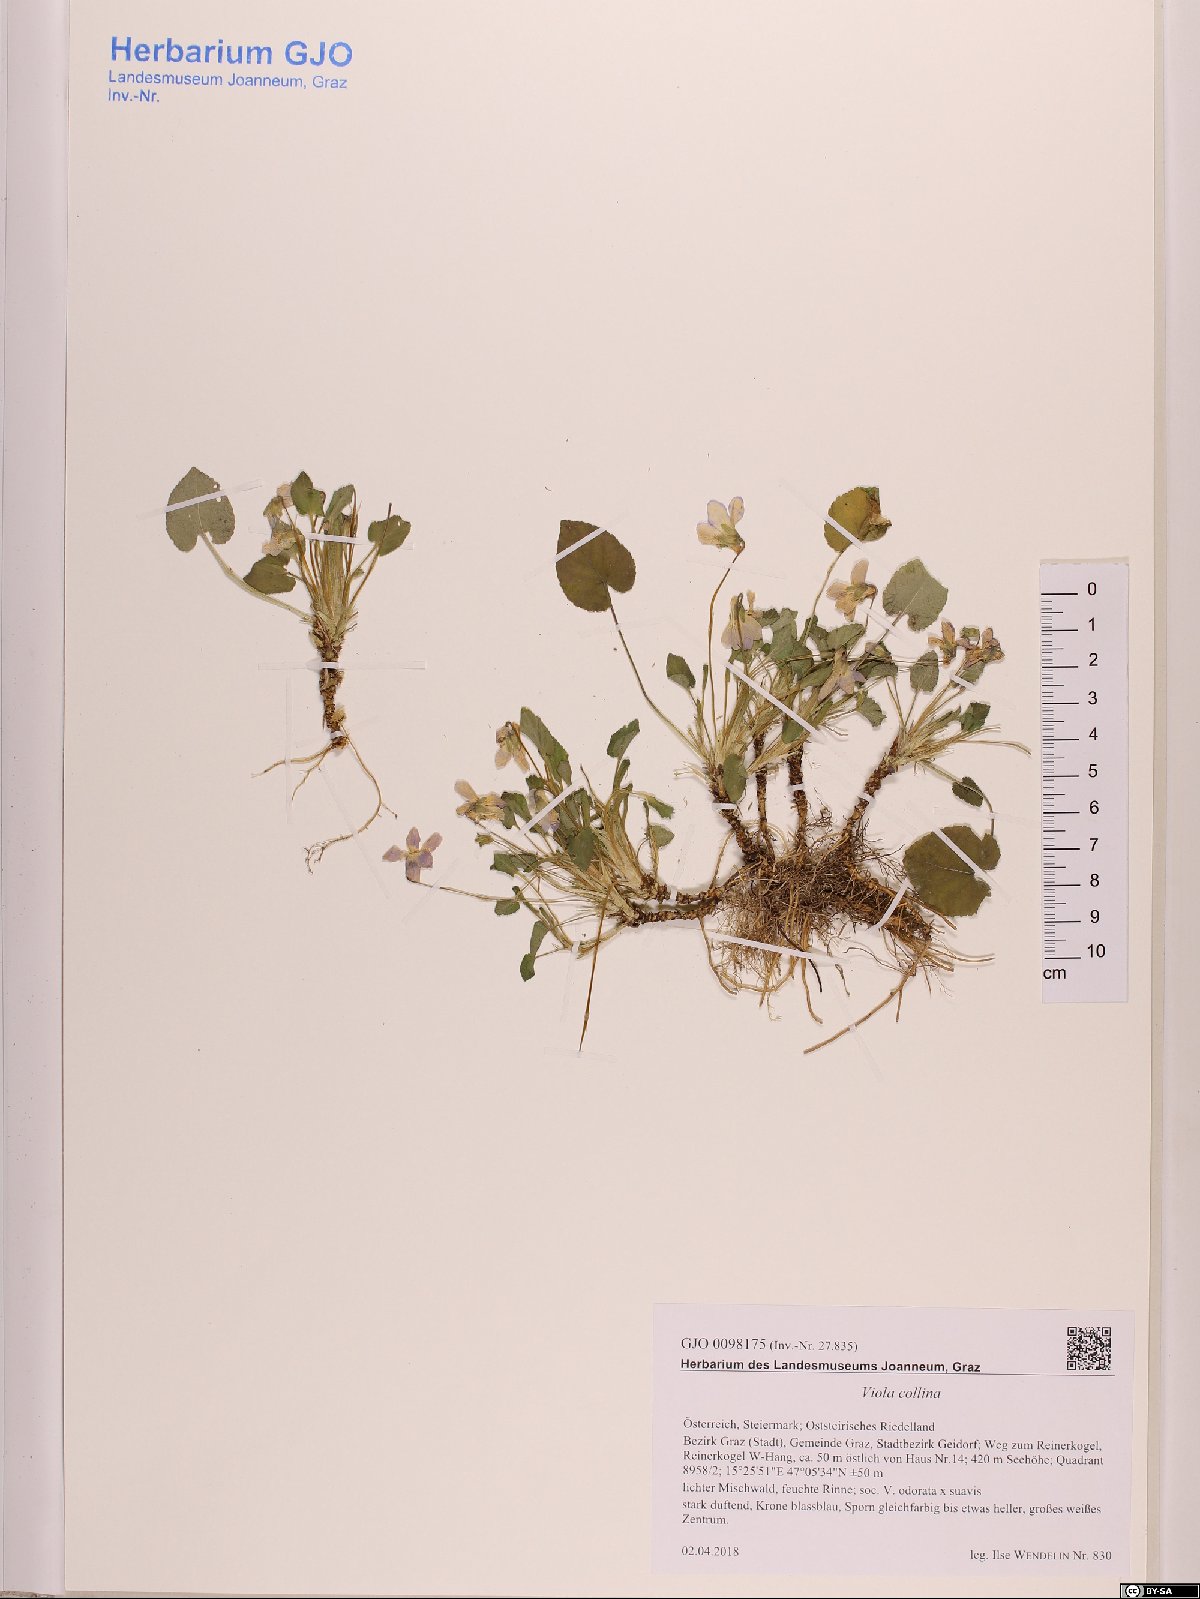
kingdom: Plantae
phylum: Tracheophyta
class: Magnoliopsida
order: Malpighiales
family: Violaceae
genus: Viola
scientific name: Viola collina
